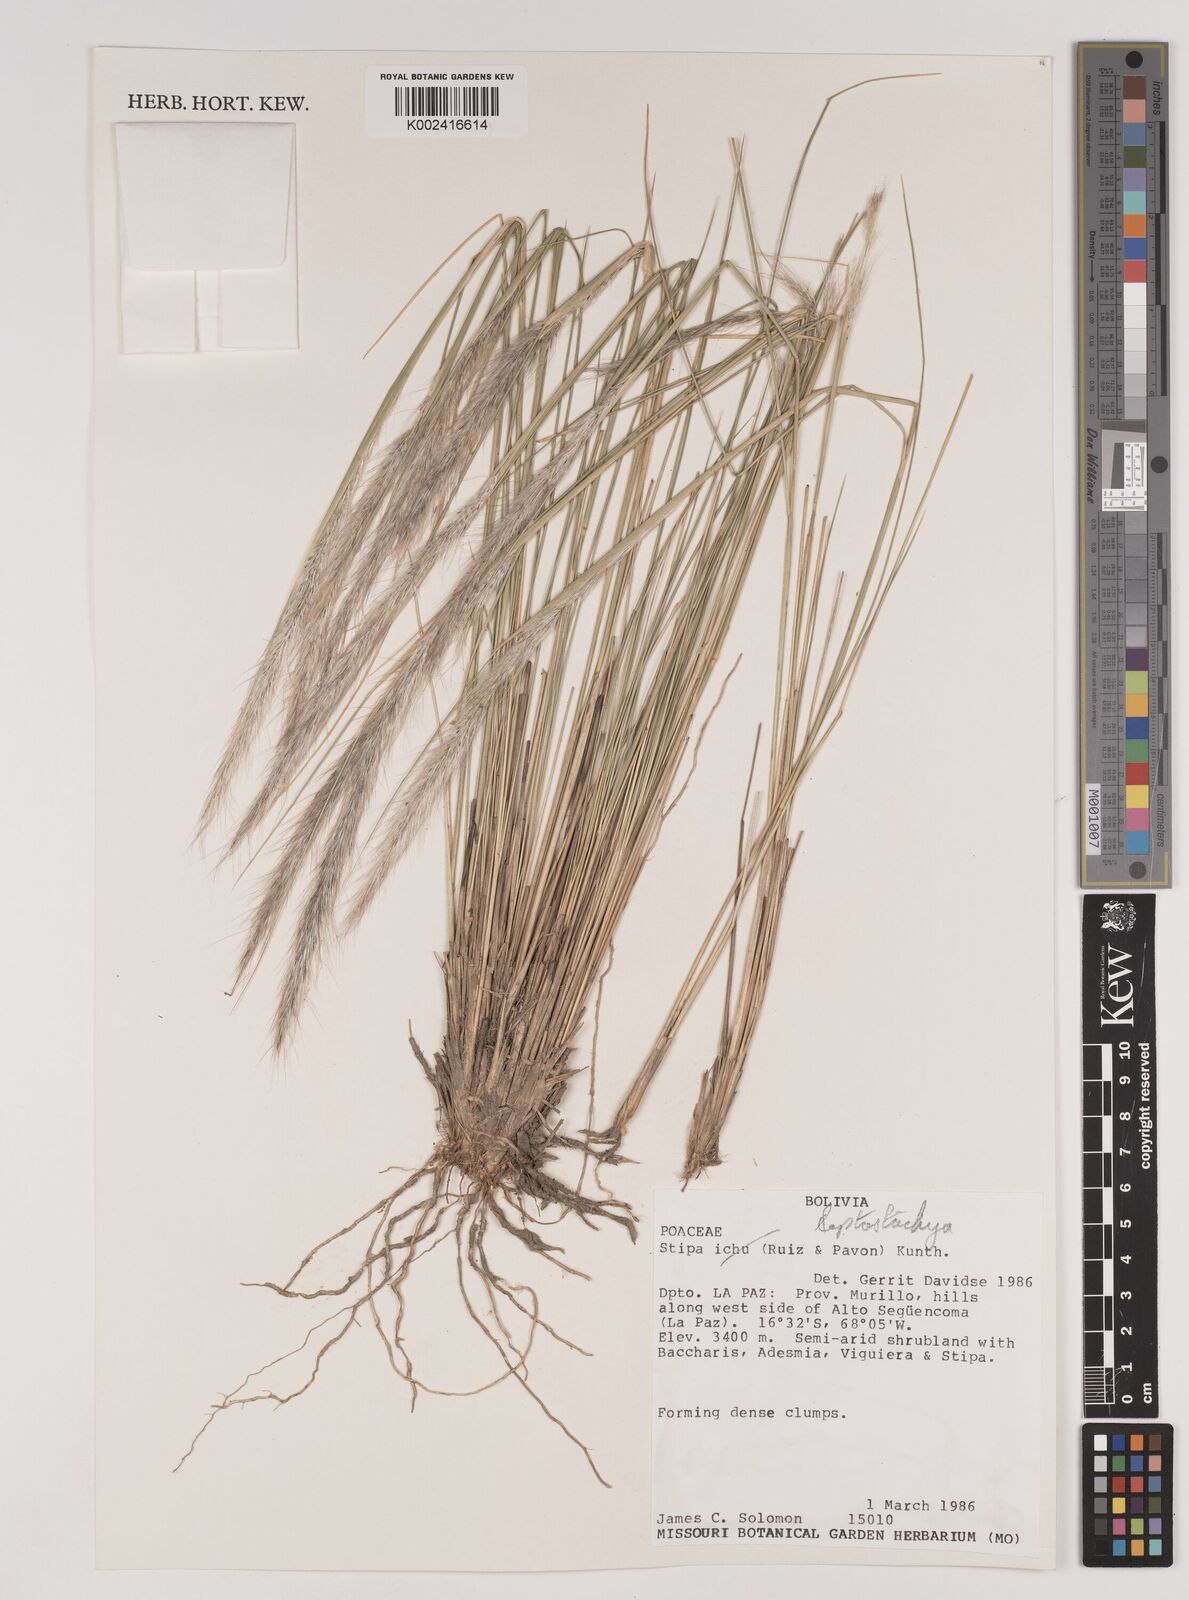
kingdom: Plantae
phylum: Tracheophyta
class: Liliopsida
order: Poales
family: Poaceae
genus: Austrostipa
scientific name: Austrostipa tenuifolia
